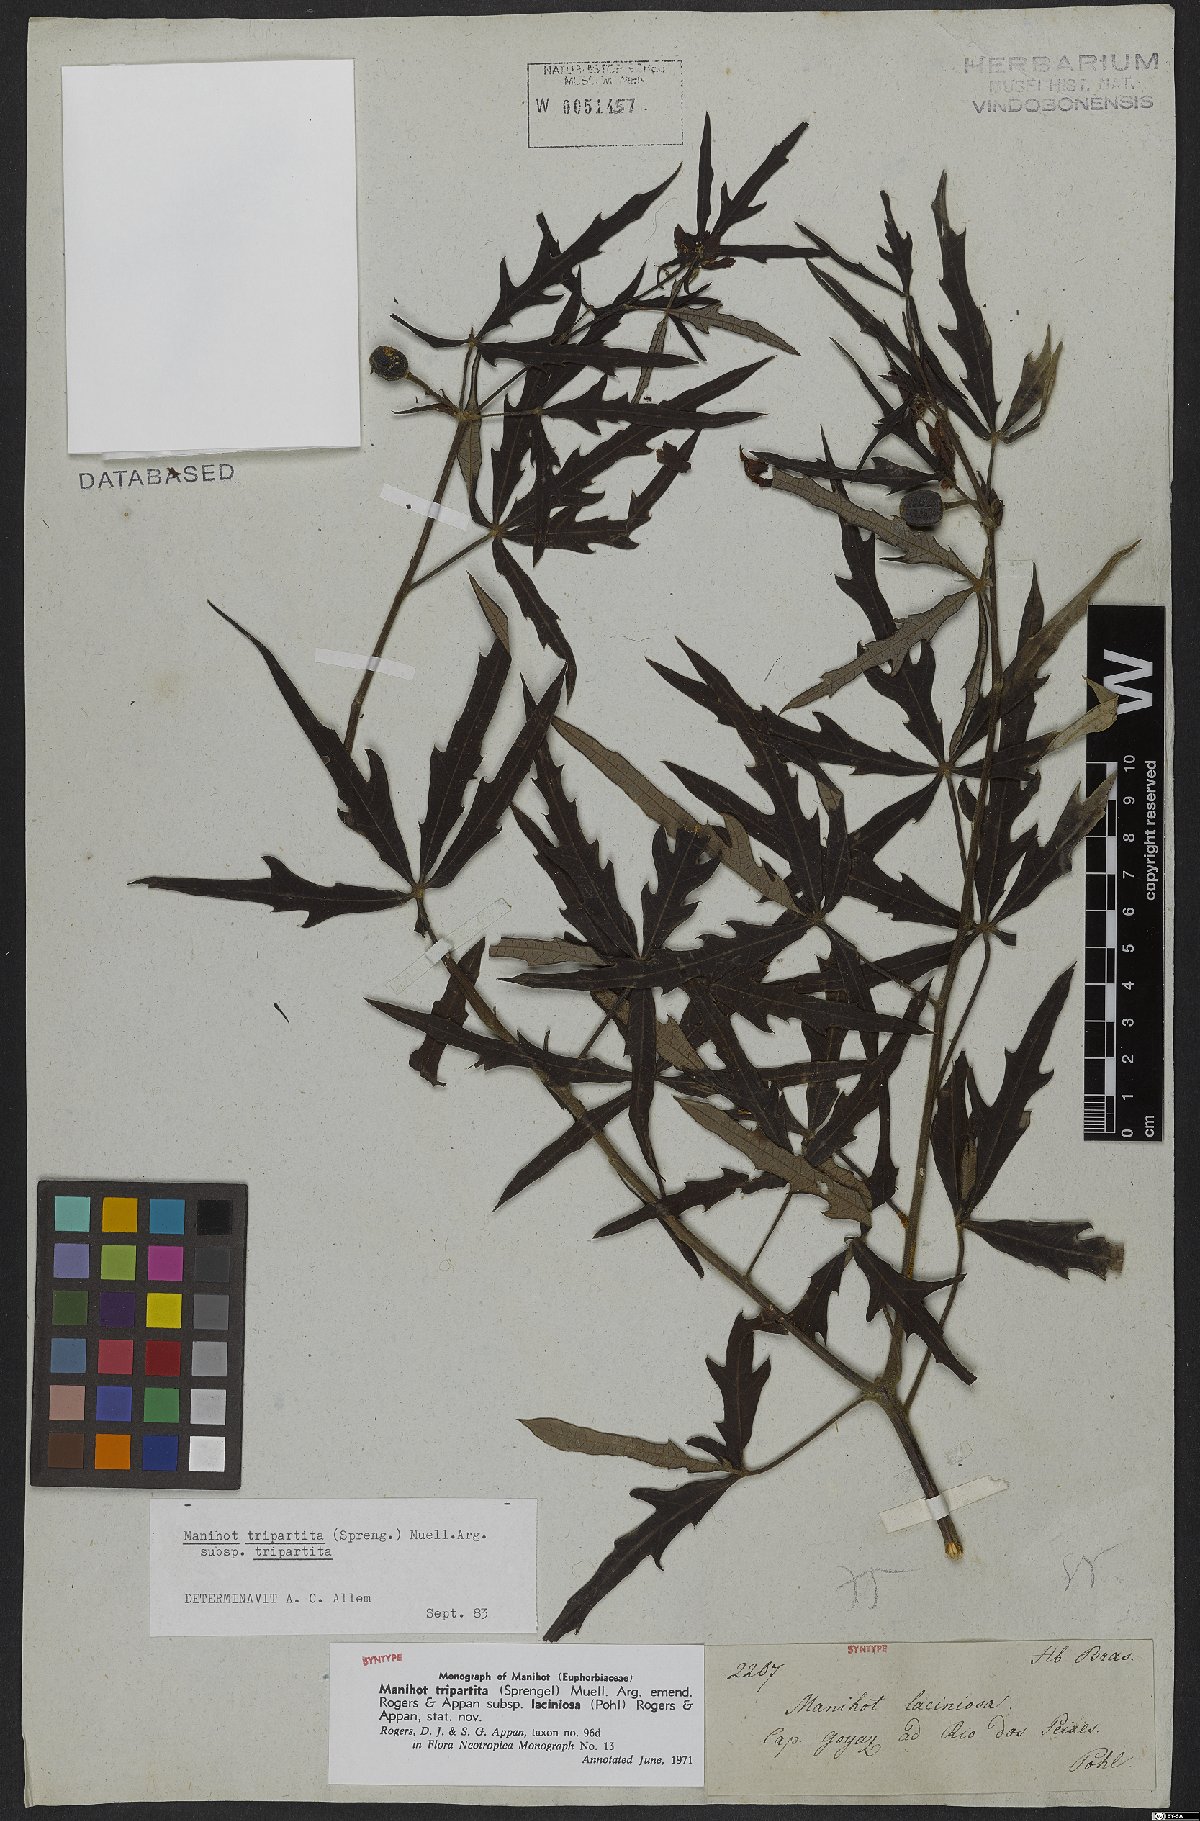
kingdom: Plantae
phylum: Tracheophyta
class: Magnoliopsida
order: Malpighiales
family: Euphorbiaceae
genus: Manihot
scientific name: Manihot tripartita
